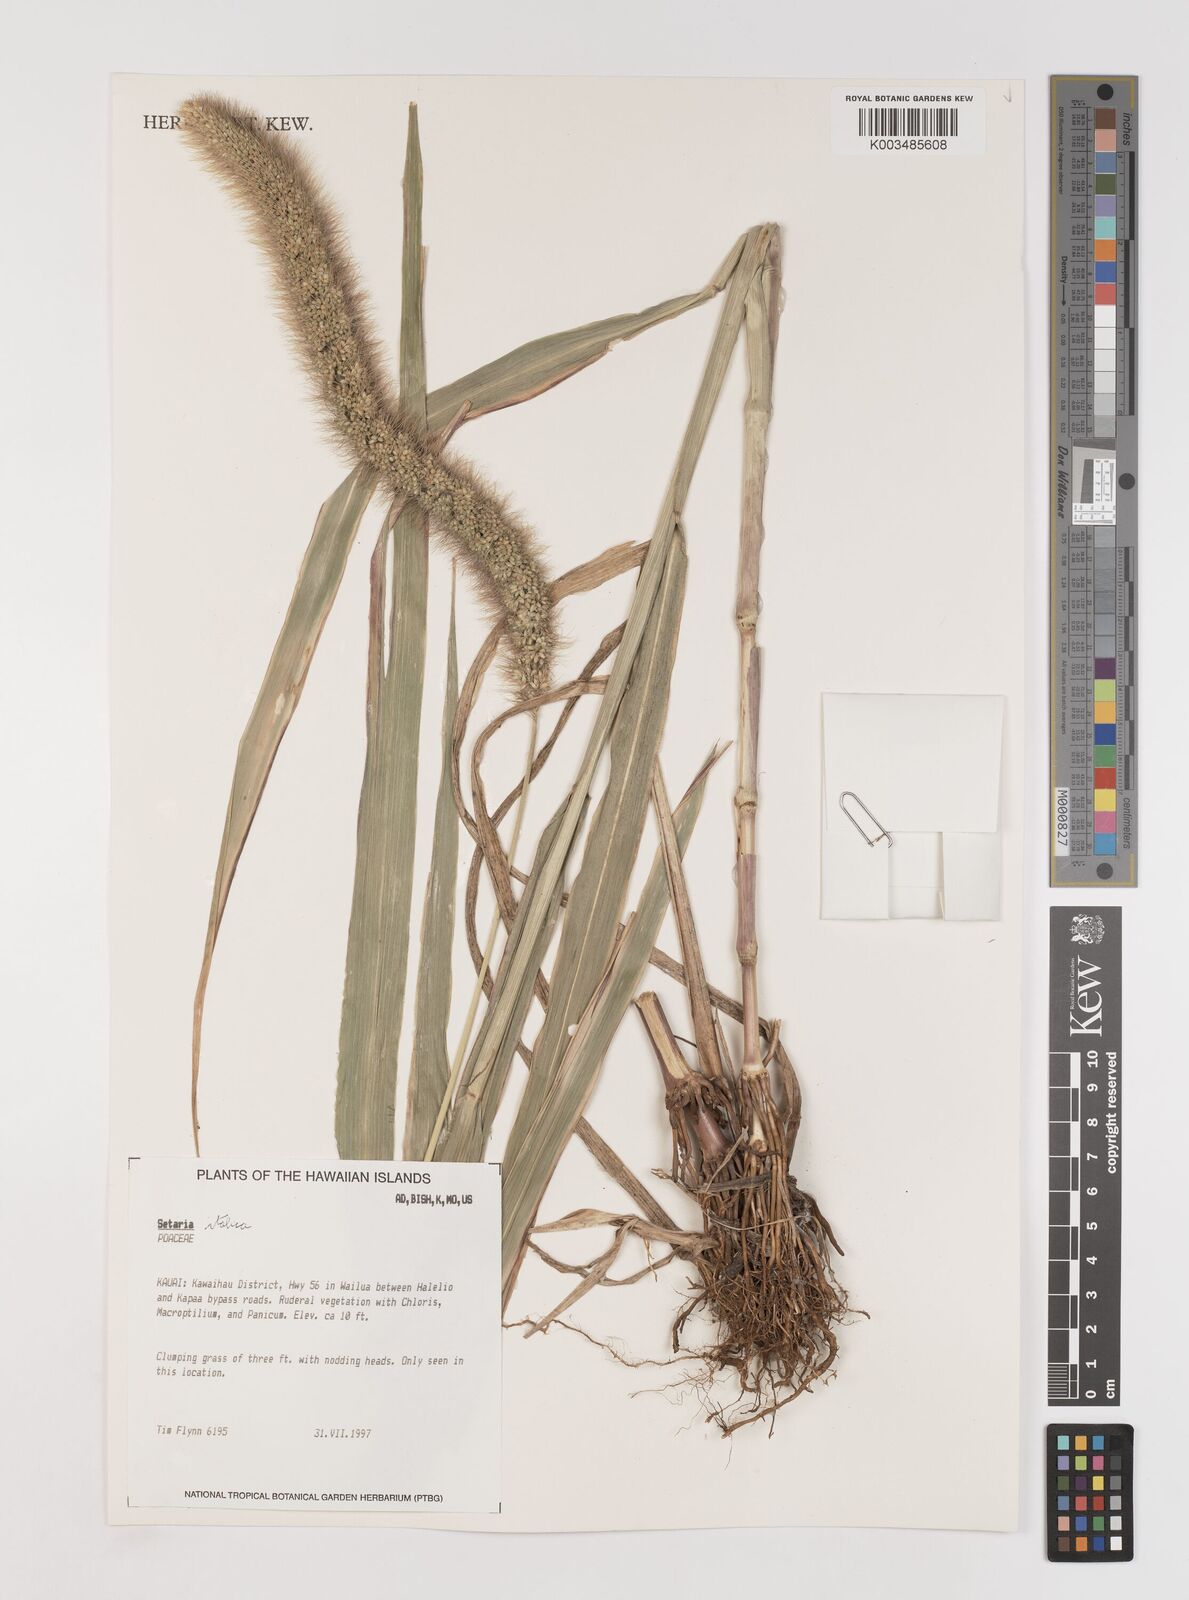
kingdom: Plantae
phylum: Tracheophyta
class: Liliopsida
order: Poales
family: Poaceae
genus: Setaria
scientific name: Setaria italica
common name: Foxtail bristle-grass
